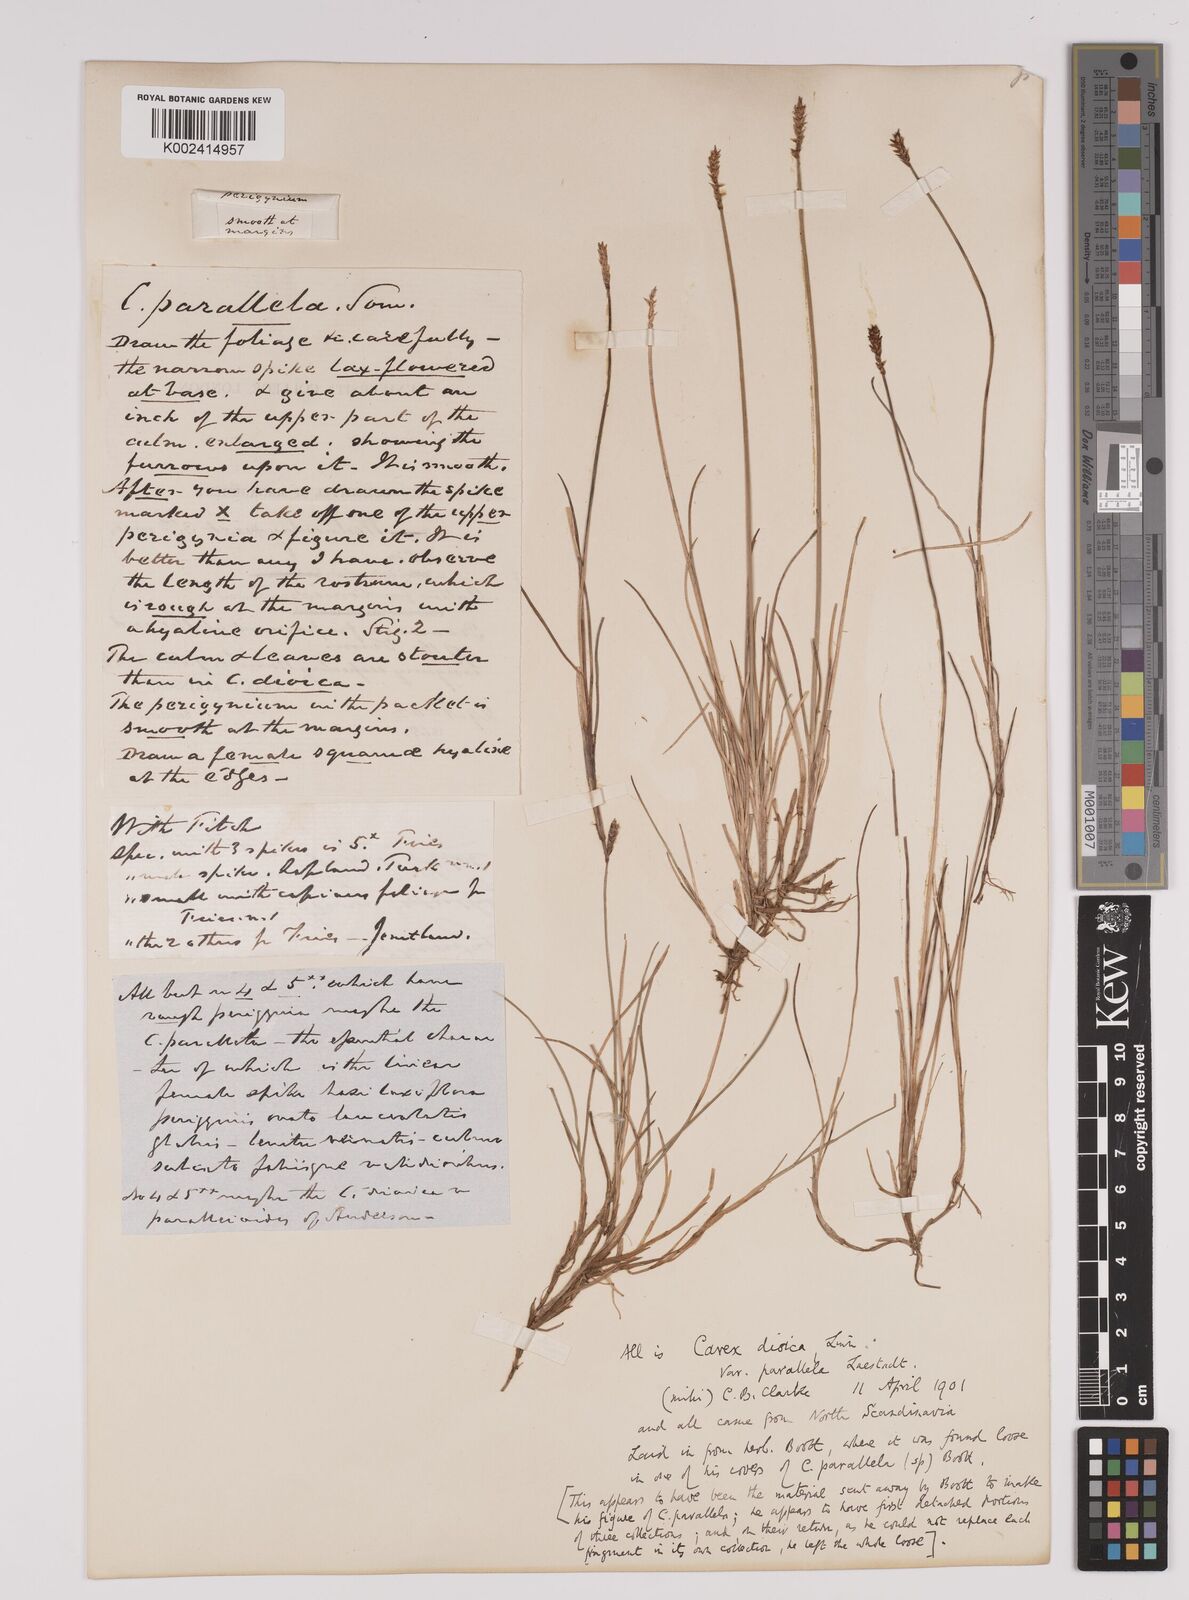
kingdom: Plantae
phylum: Tracheophyta
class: Liliopsida
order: Poales
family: Cyperaceae
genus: Carex
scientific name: Carex dioica
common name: Dioecious sedge
